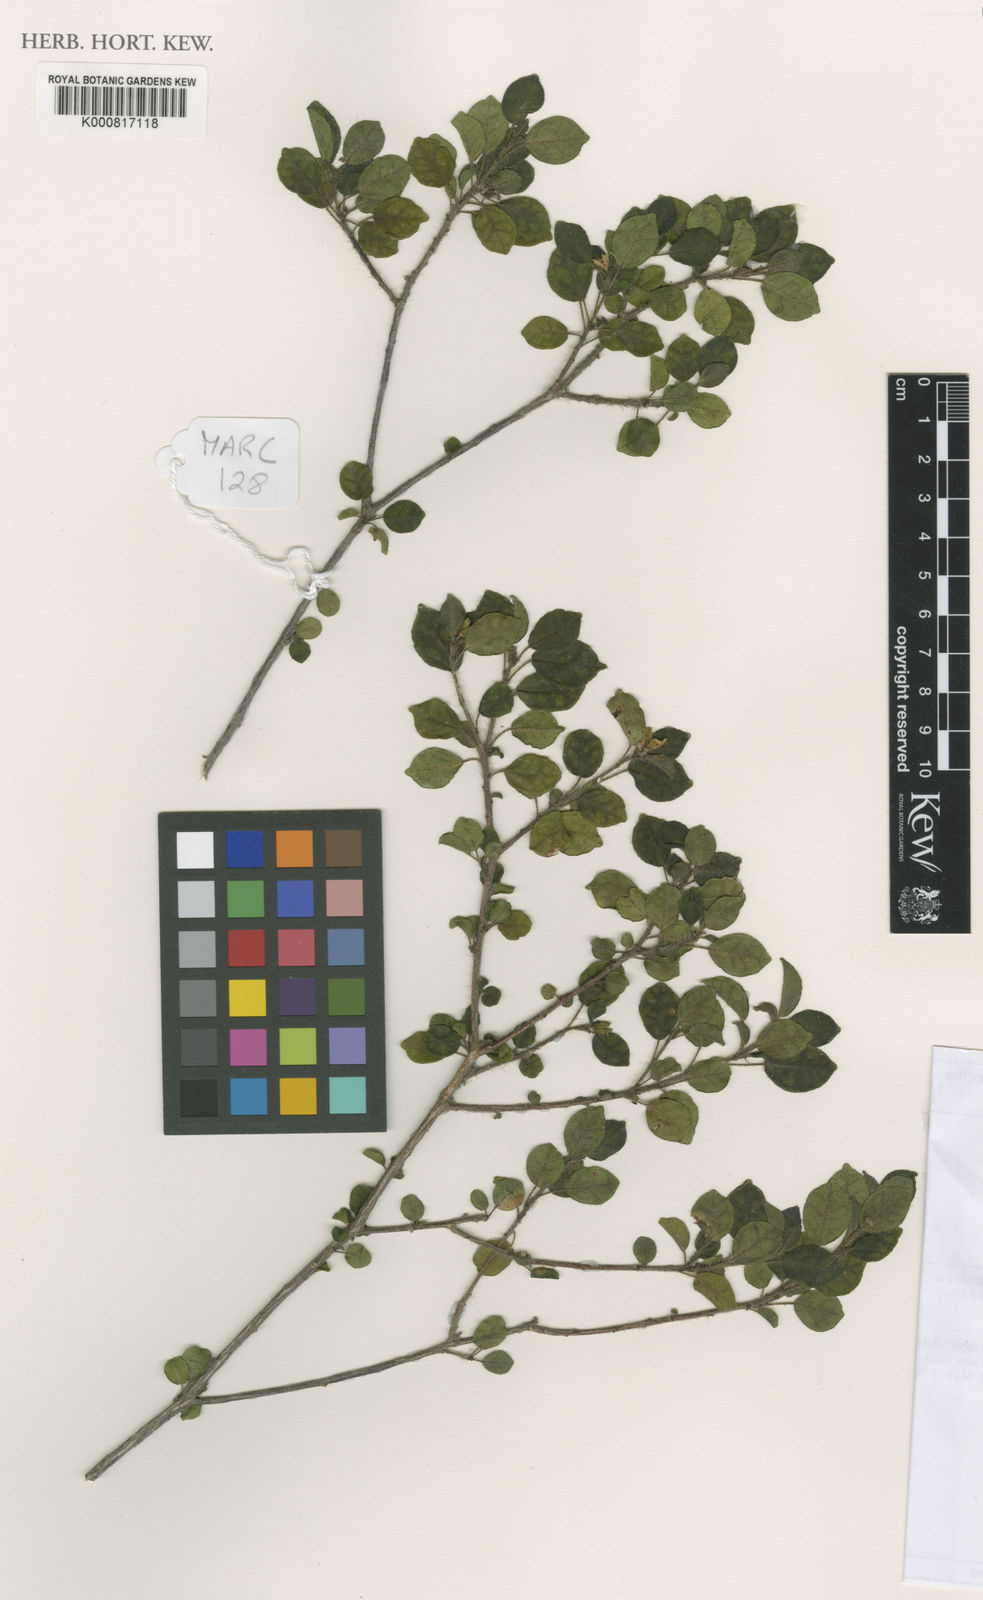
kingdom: Plantae
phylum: Tracheophyta
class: Magnoliopsida
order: Malpighiales
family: Euphorbiaceae
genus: Croton
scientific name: Croton fishlockii
